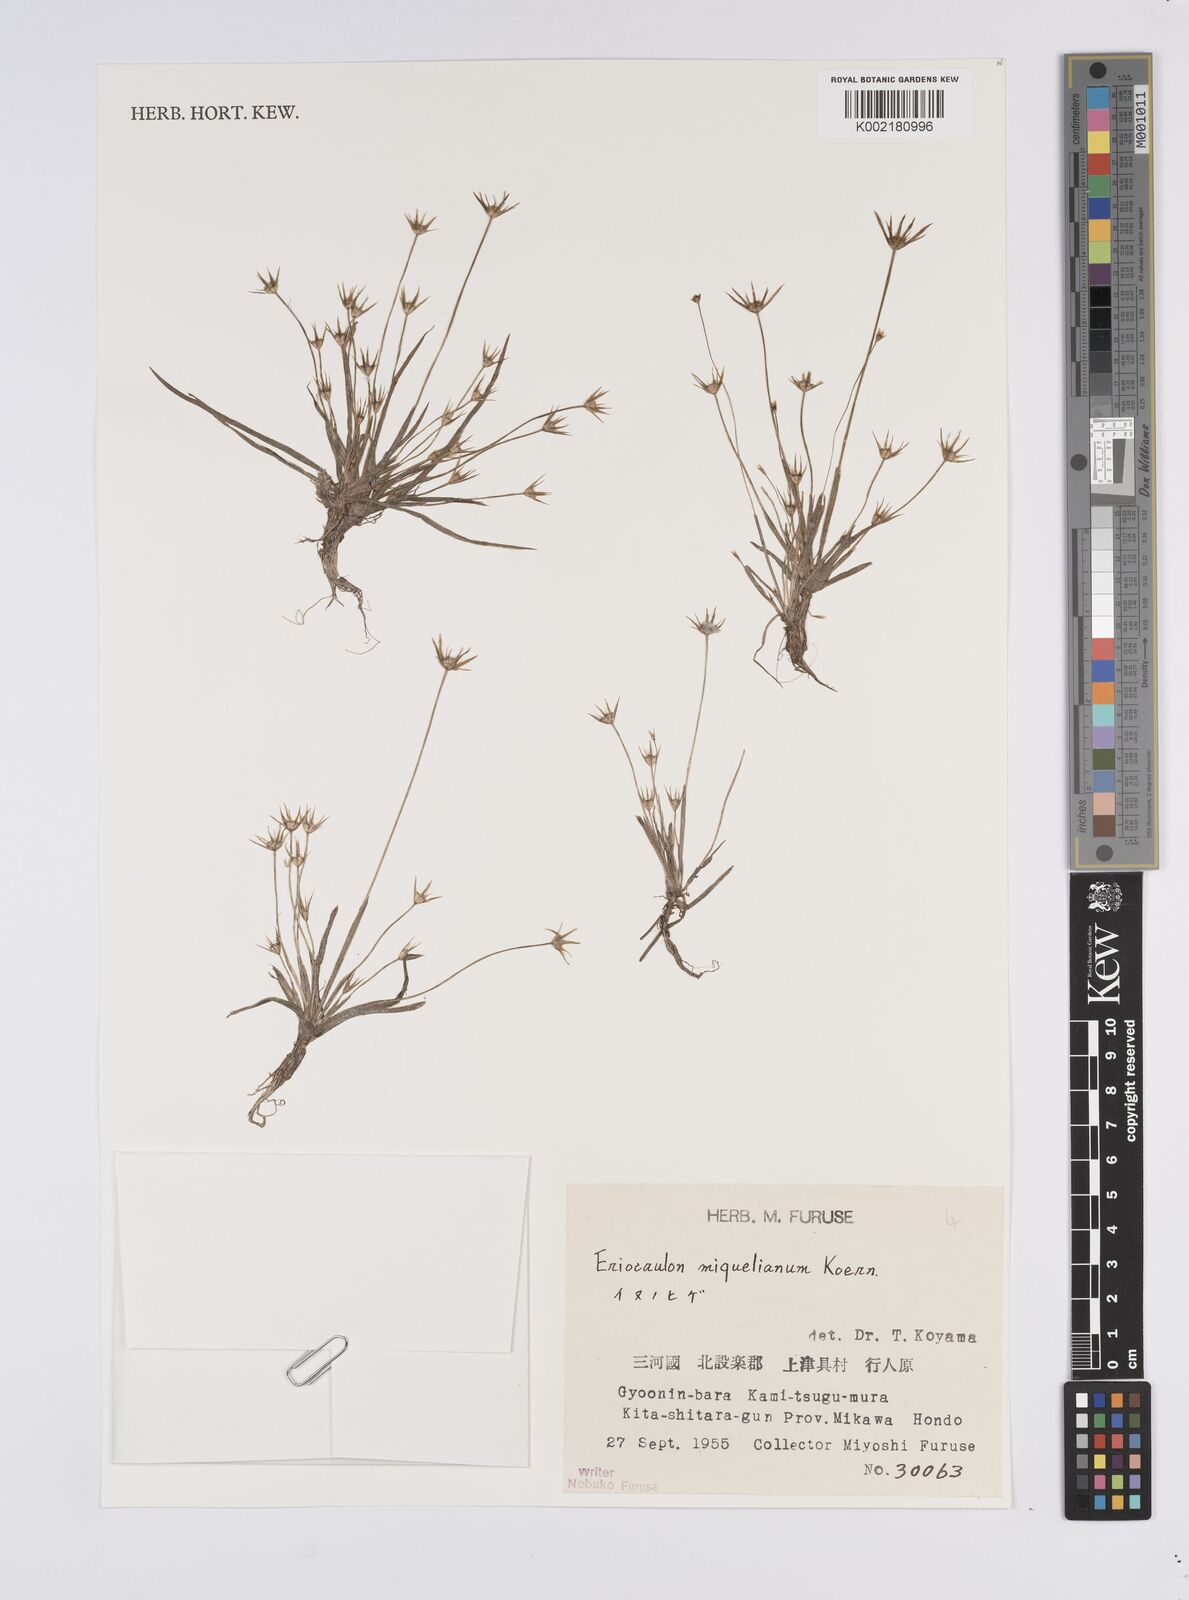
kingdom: Plantae
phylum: Tracheophyta
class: Liliopsida
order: Poales
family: Eriocaulaceae
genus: Eriocaulon
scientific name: Eriocaulon miquelianum
